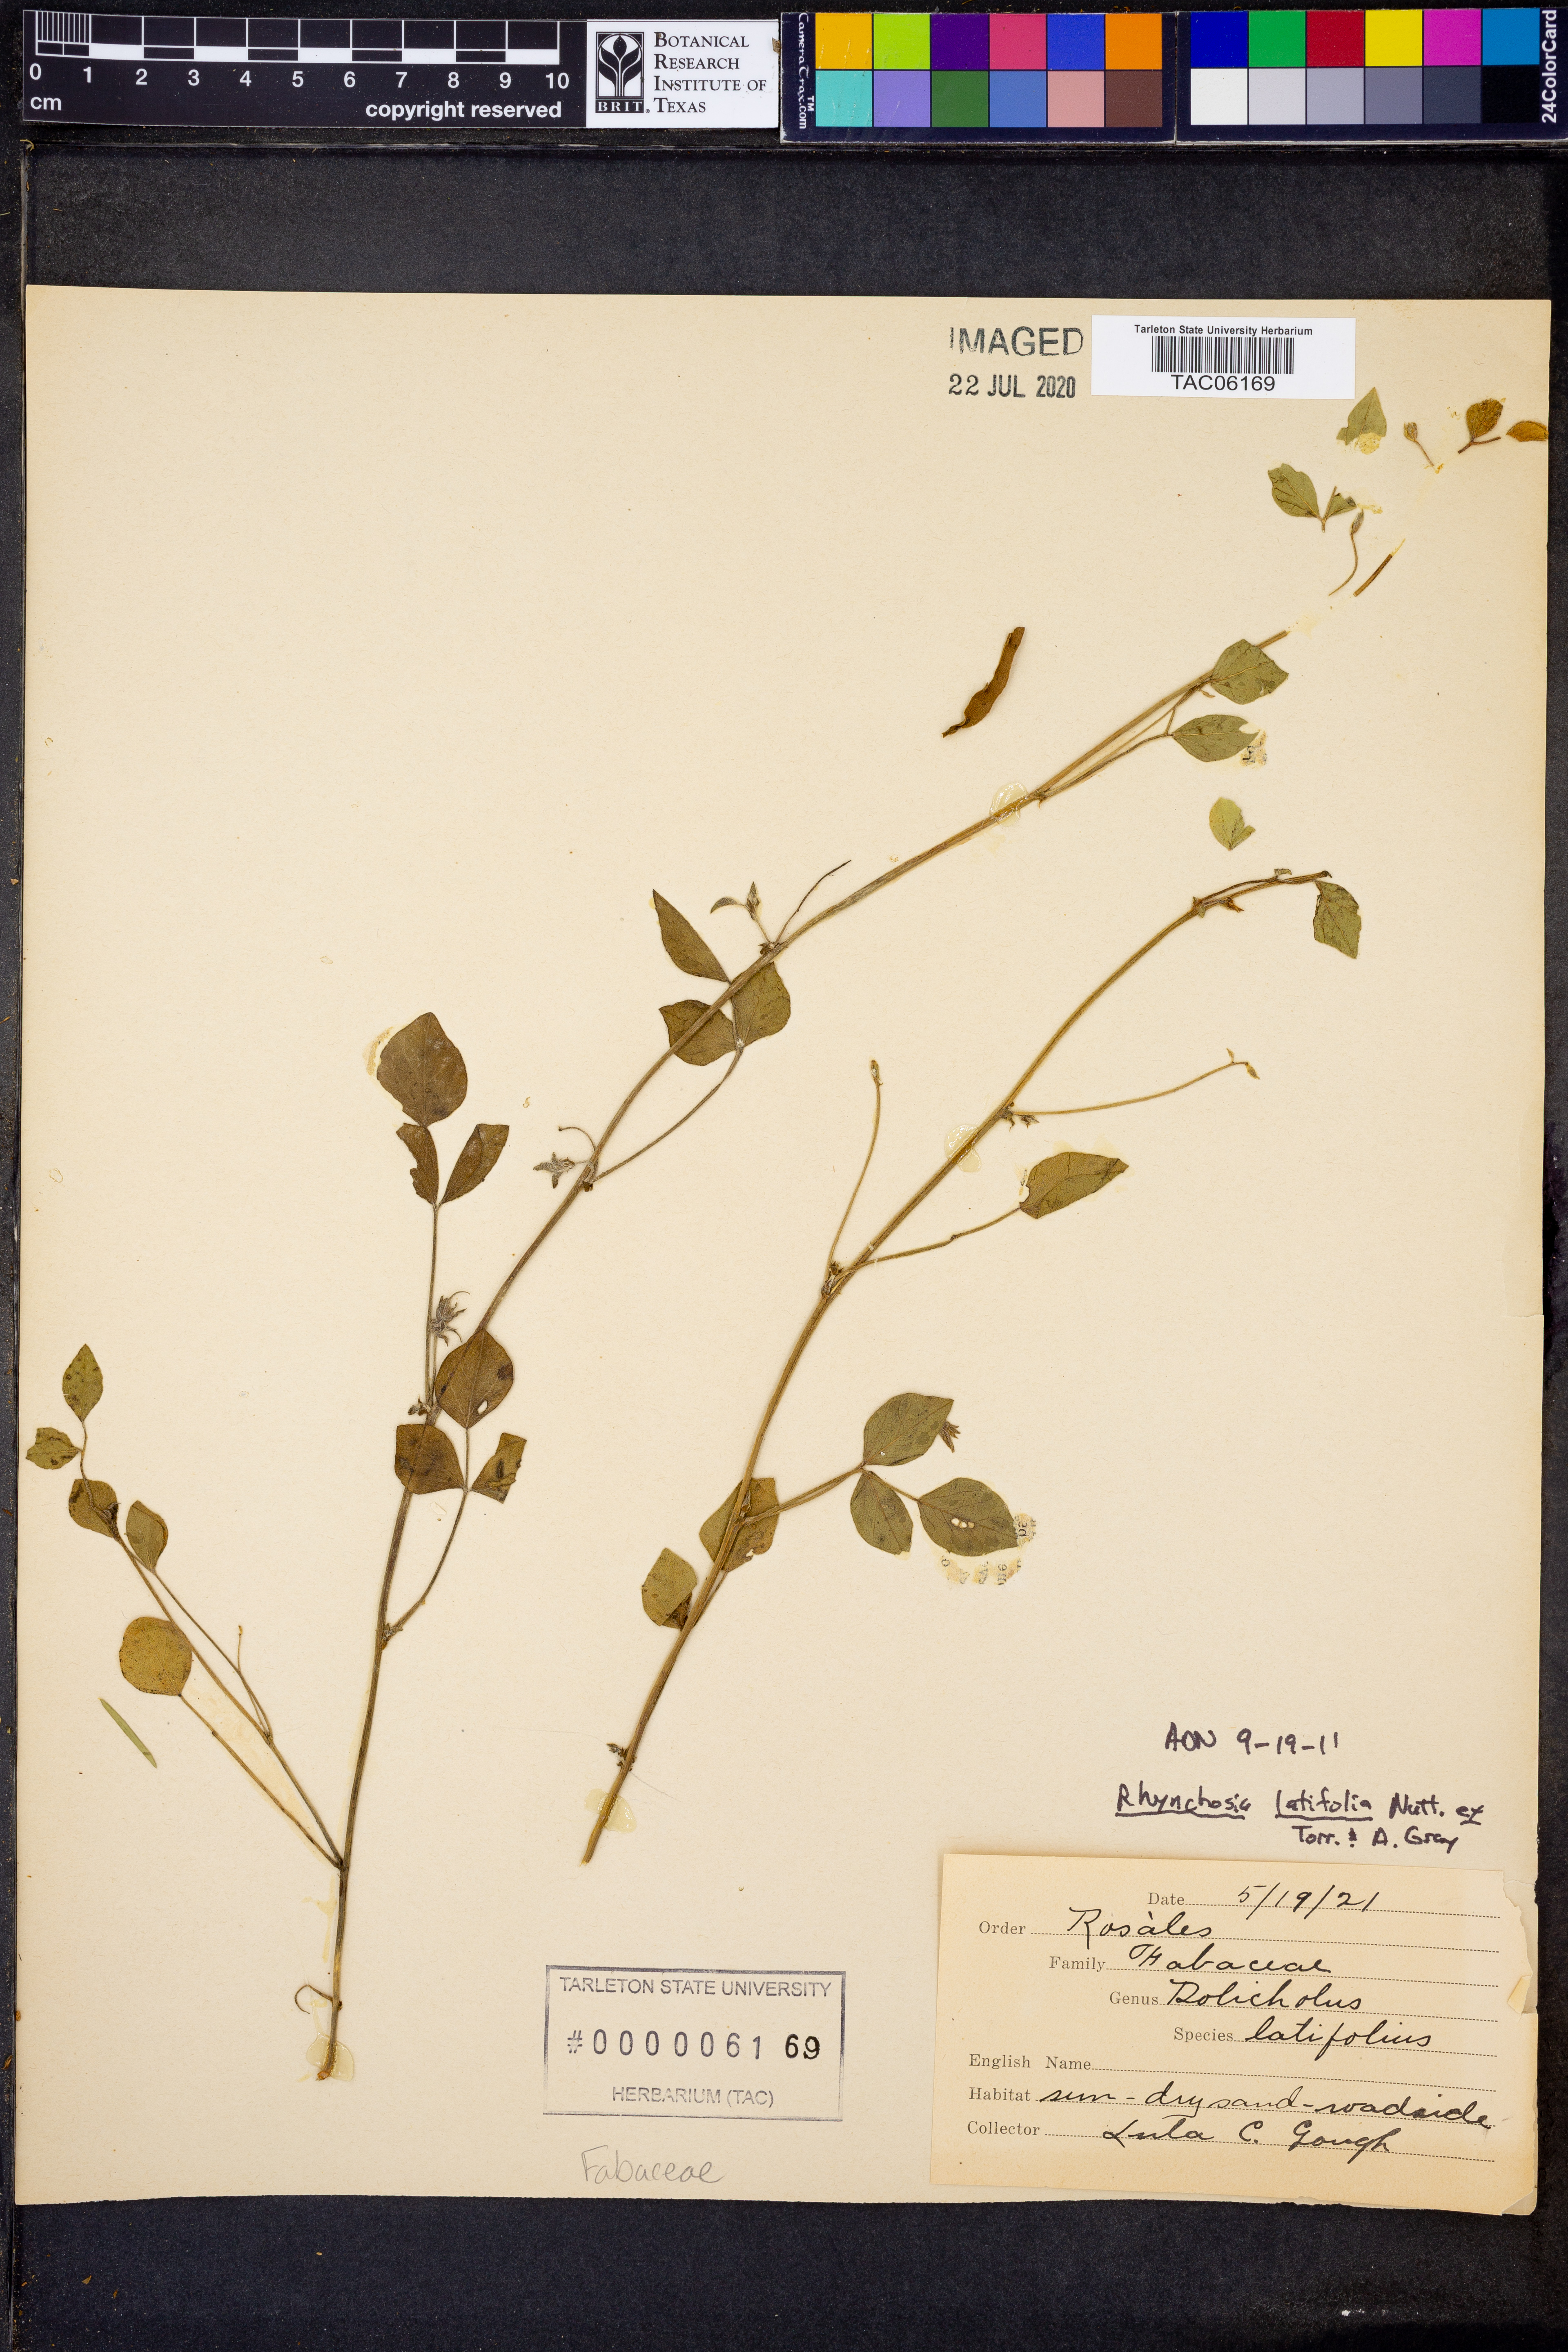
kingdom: Plantae
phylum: Tracheophyta
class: Magnoliopsida
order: Fabales
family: Fabaceae
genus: Rhynchosia
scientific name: Rhynchosia latifolia
